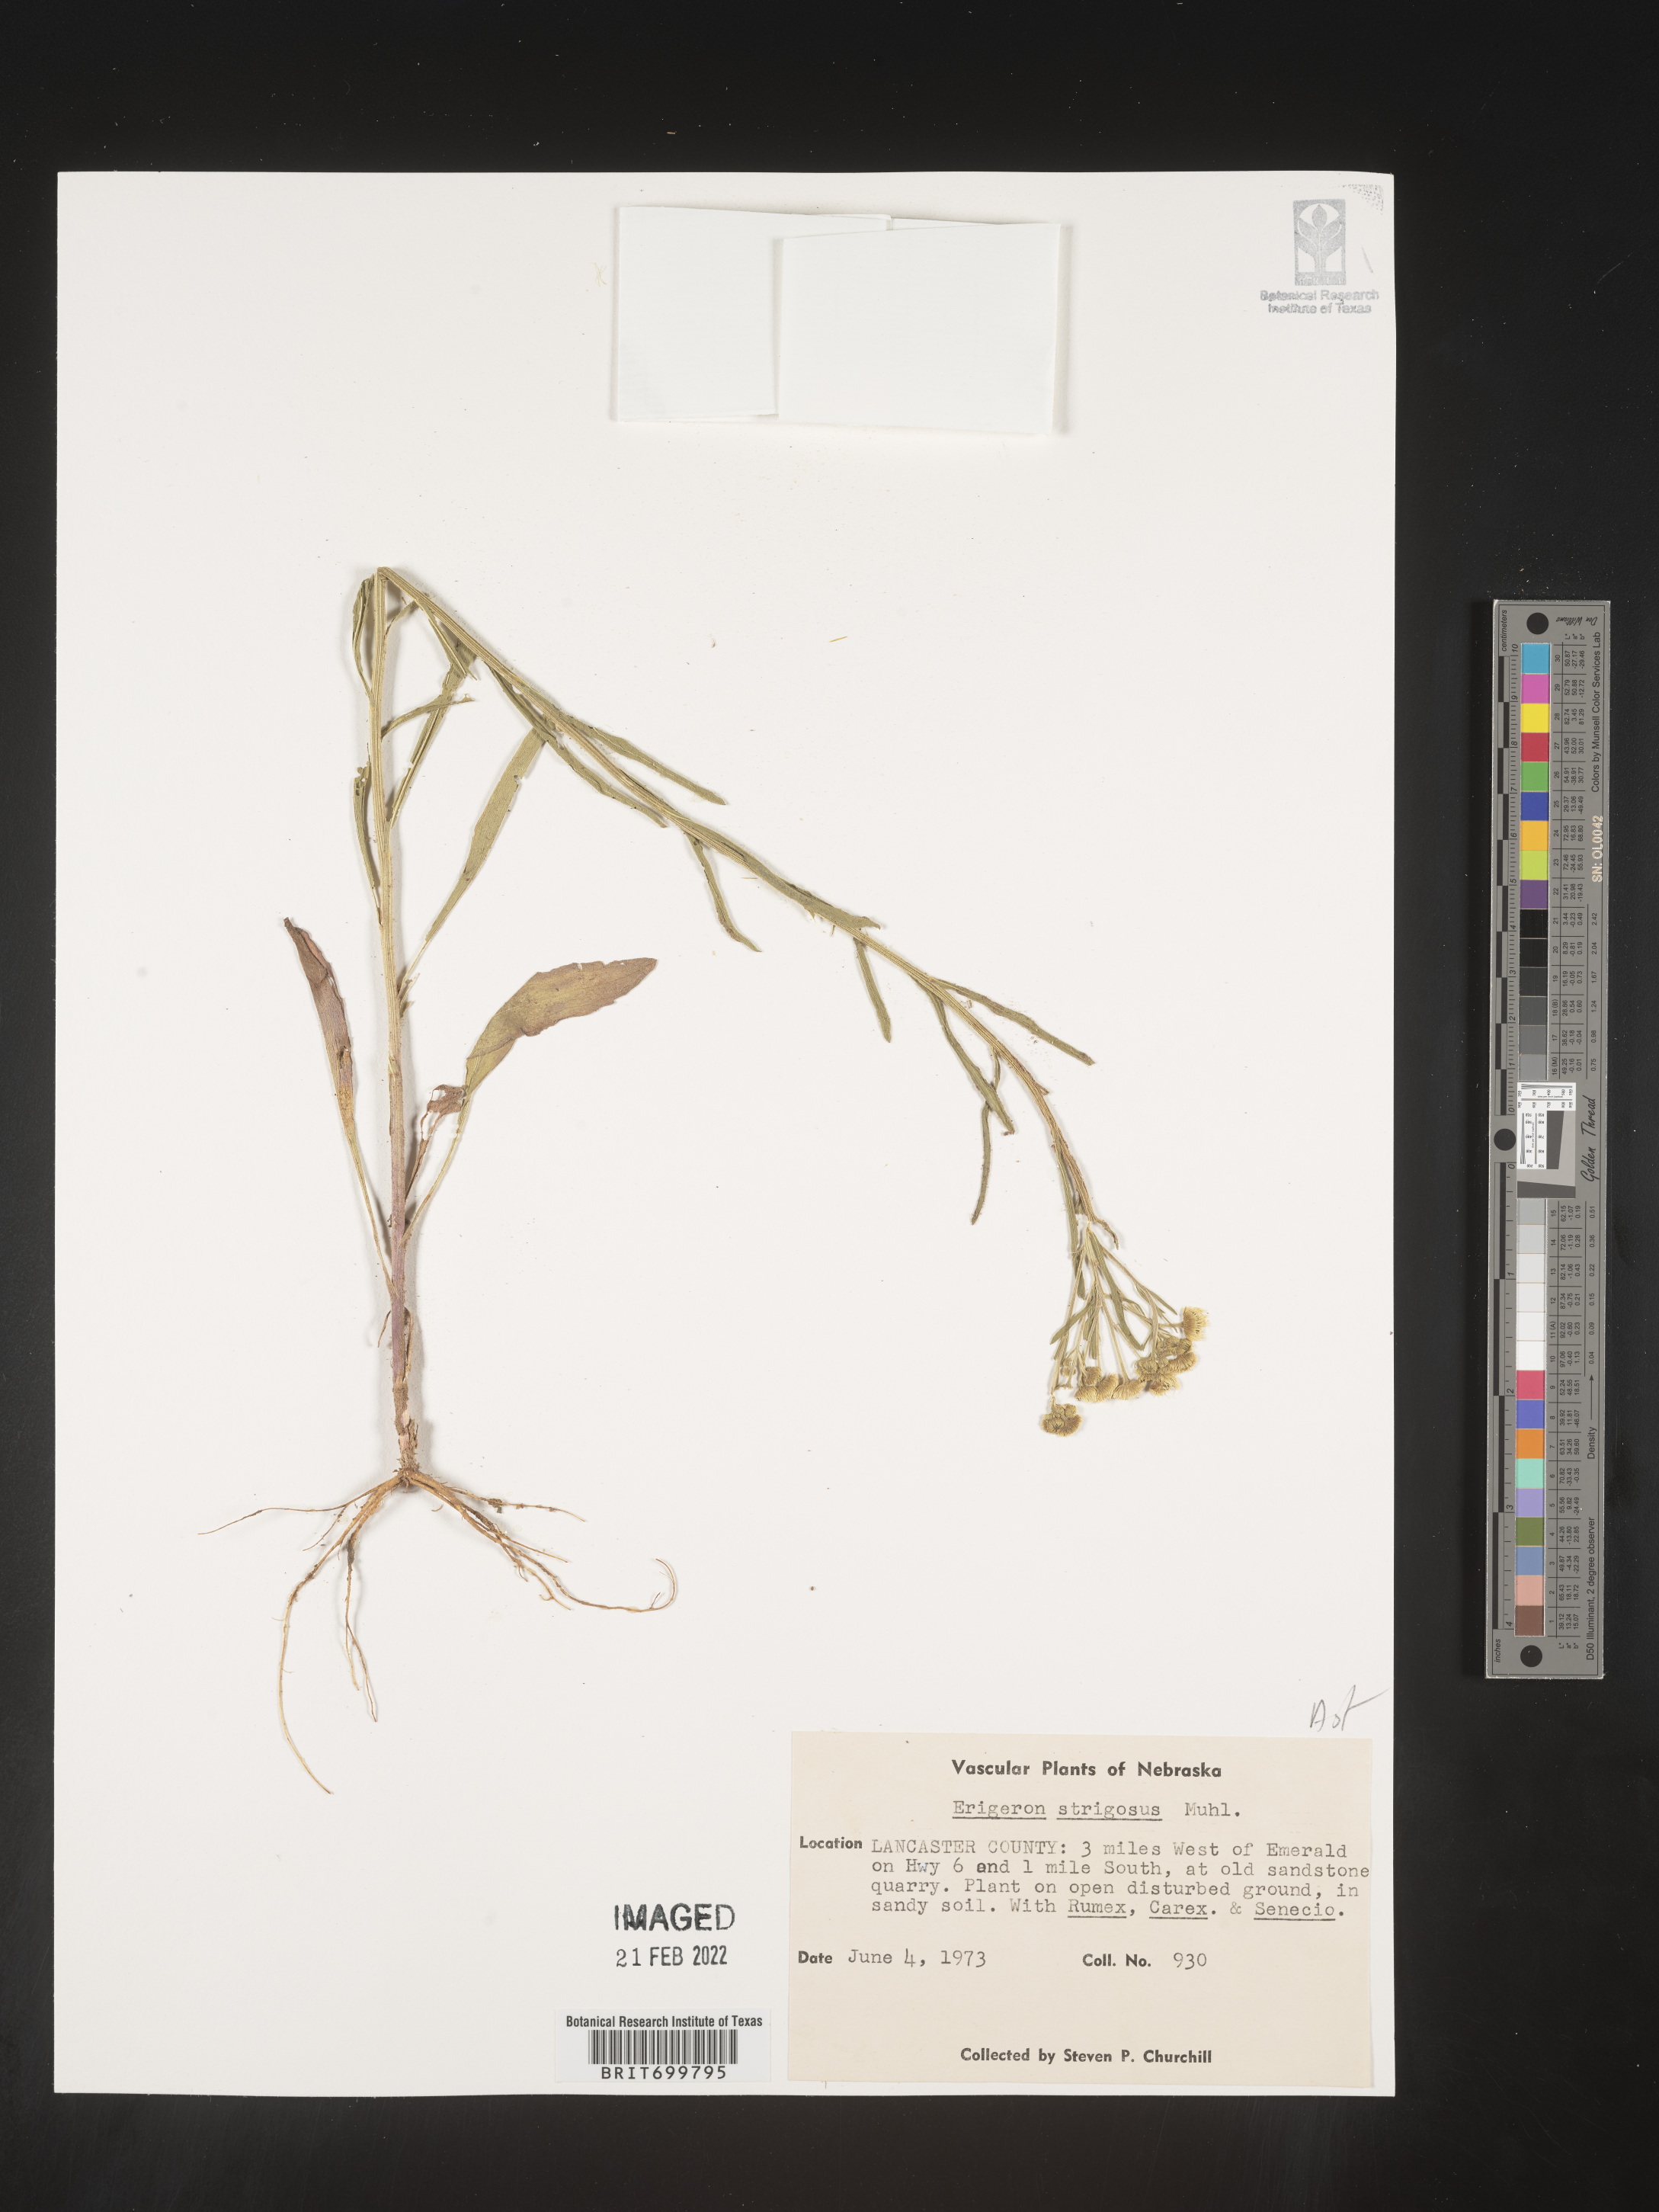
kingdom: Plantae
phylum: Tracheophyta
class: Magnoliopsida
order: Asterales
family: Asteraceae
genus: Erigeron
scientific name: Erigeron strigosus
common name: Common eastern fleabane
